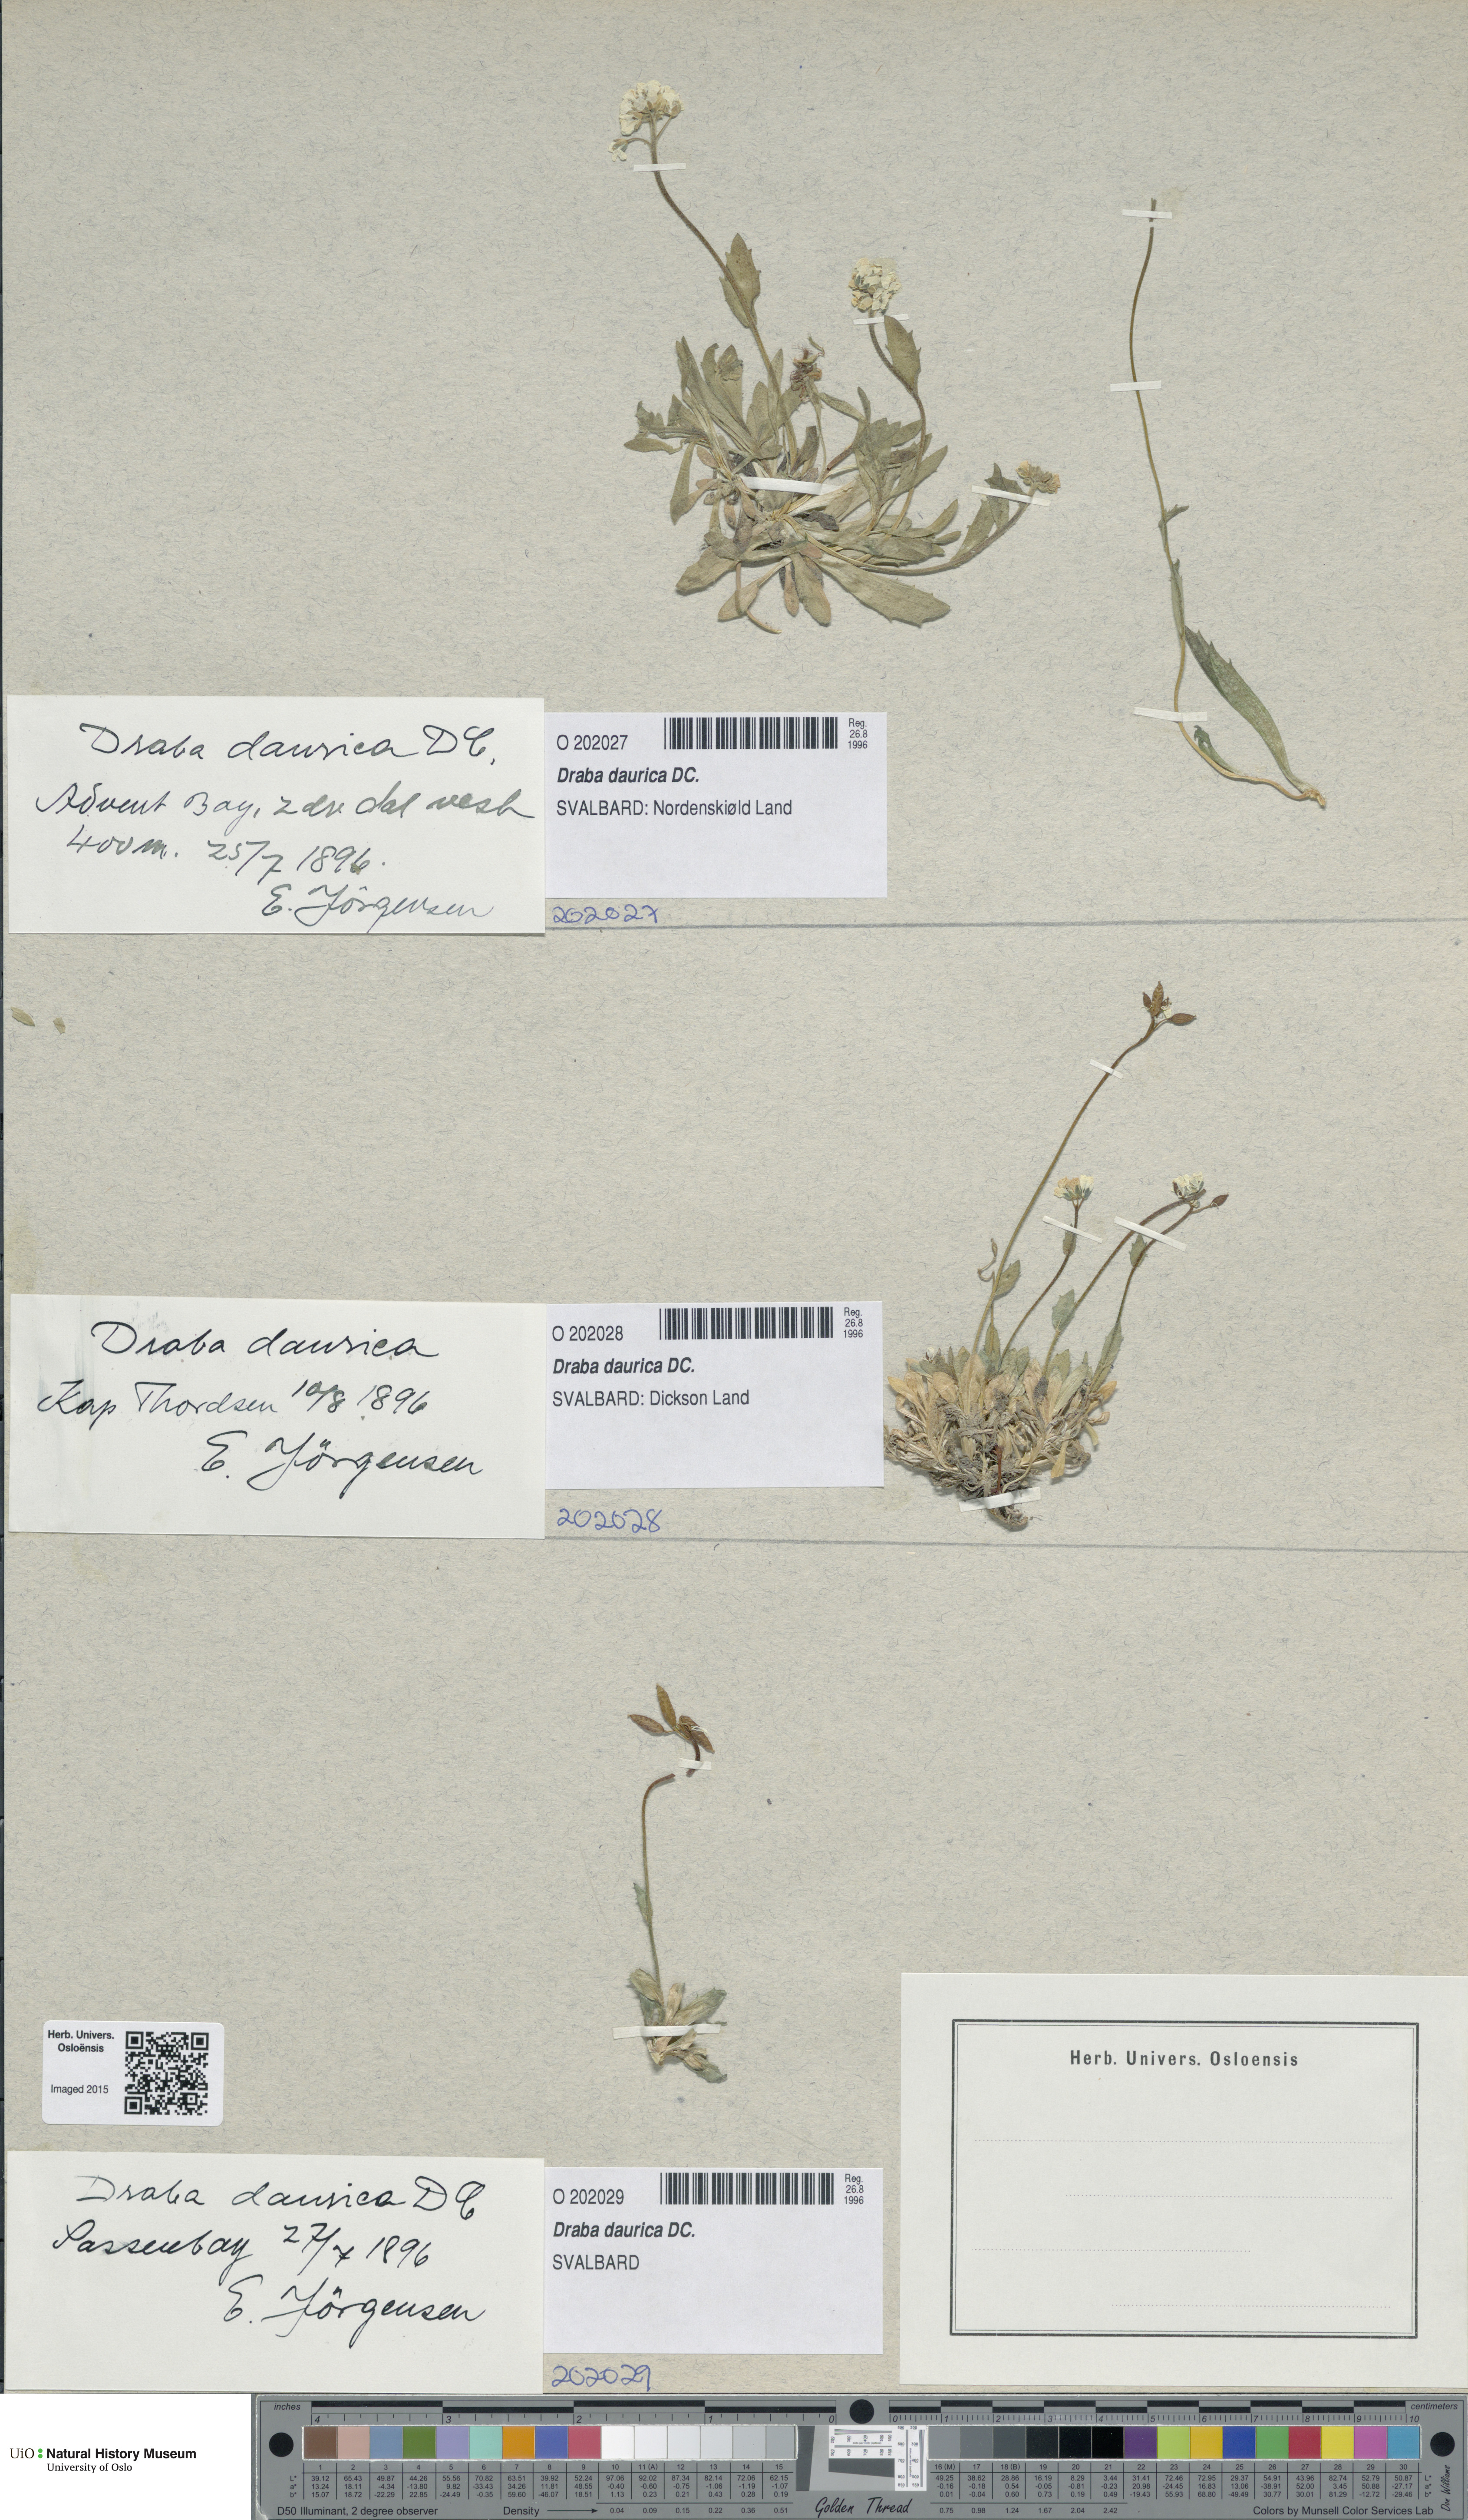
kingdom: Plantae
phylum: Tracheophyta
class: Magnoliopsida
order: Brassicales
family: Brassicaceae
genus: Draba
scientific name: Draba glabella
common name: Glaucous draba
